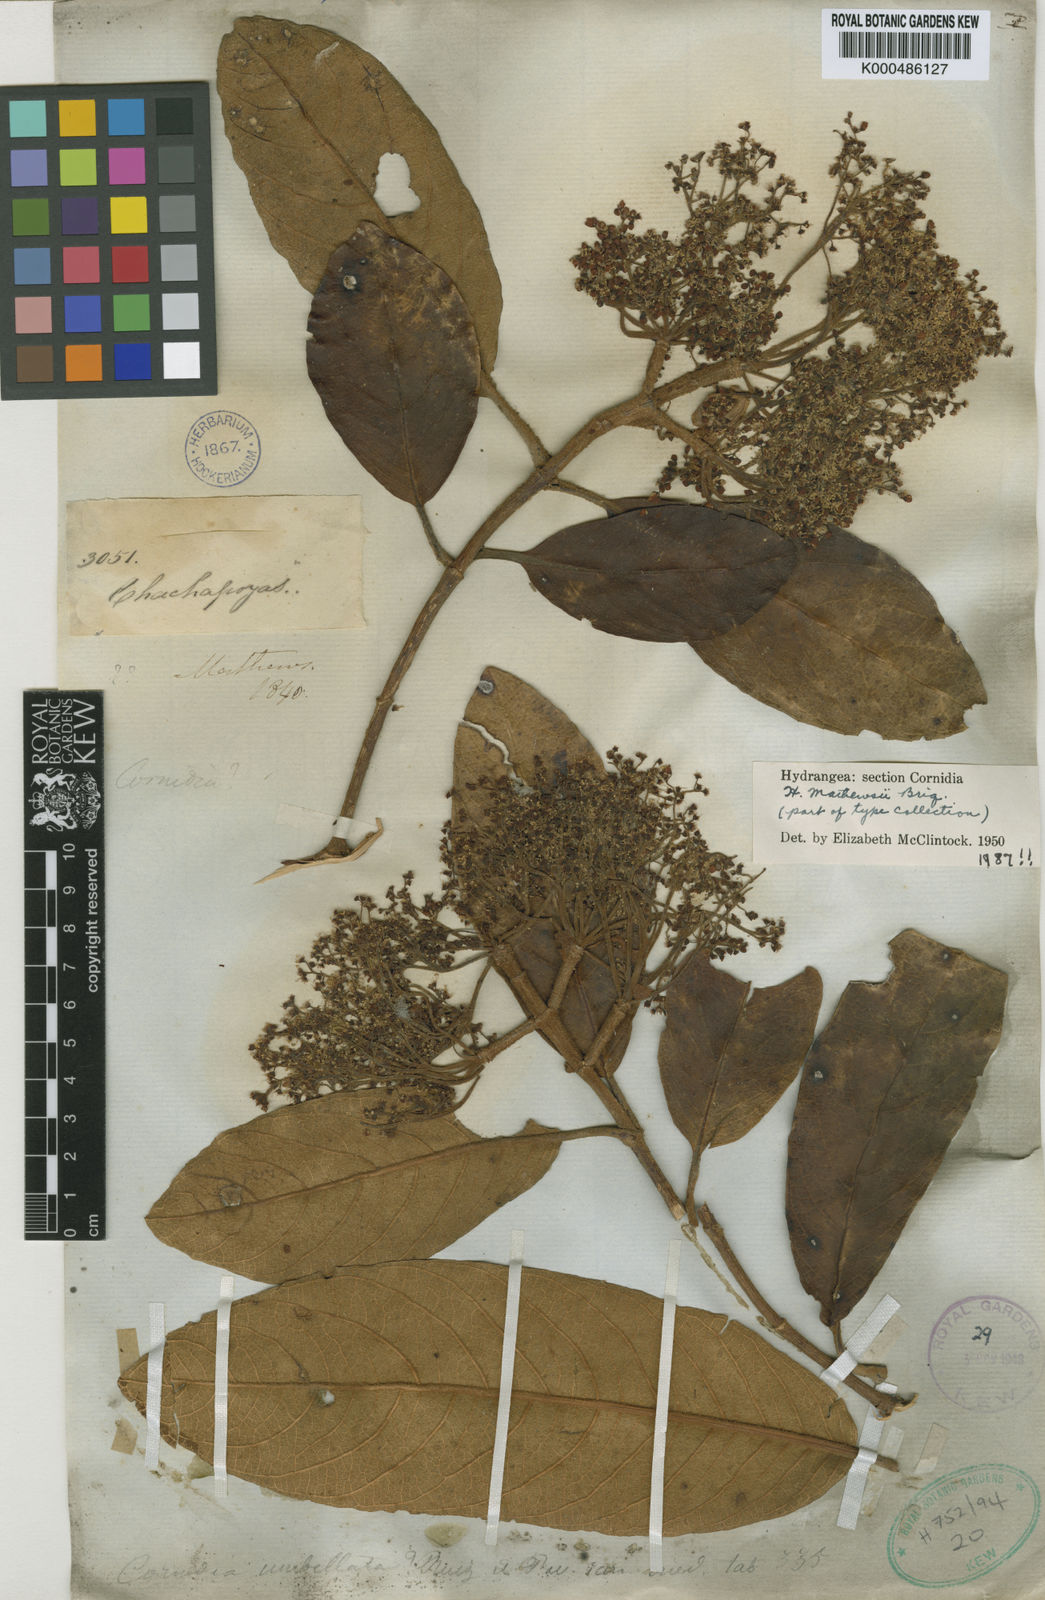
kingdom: Plantae
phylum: Tracheophyta
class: Magnoliopsida
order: Cornales
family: Hydrangeaceae
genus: Hydrangea
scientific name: Hydrangea mathewsii
